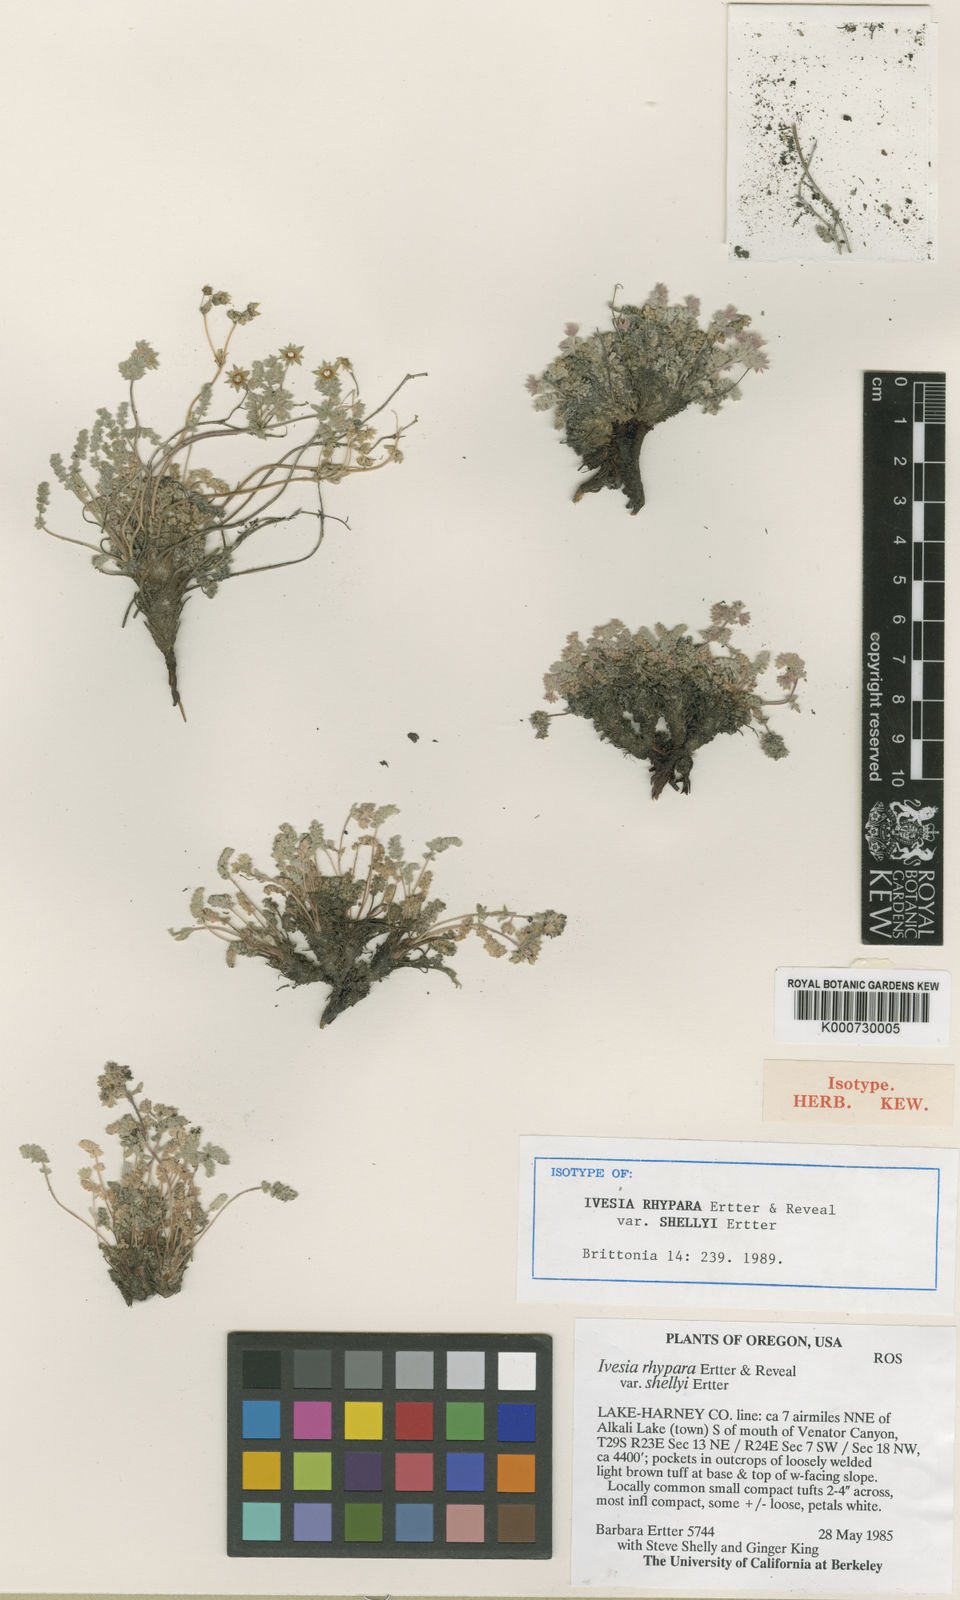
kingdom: Plantae
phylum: Tracheophyta
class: Magnoliopsida
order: Rosales
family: Rosaceae
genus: Potentilla
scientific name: Potentilla rhypara
